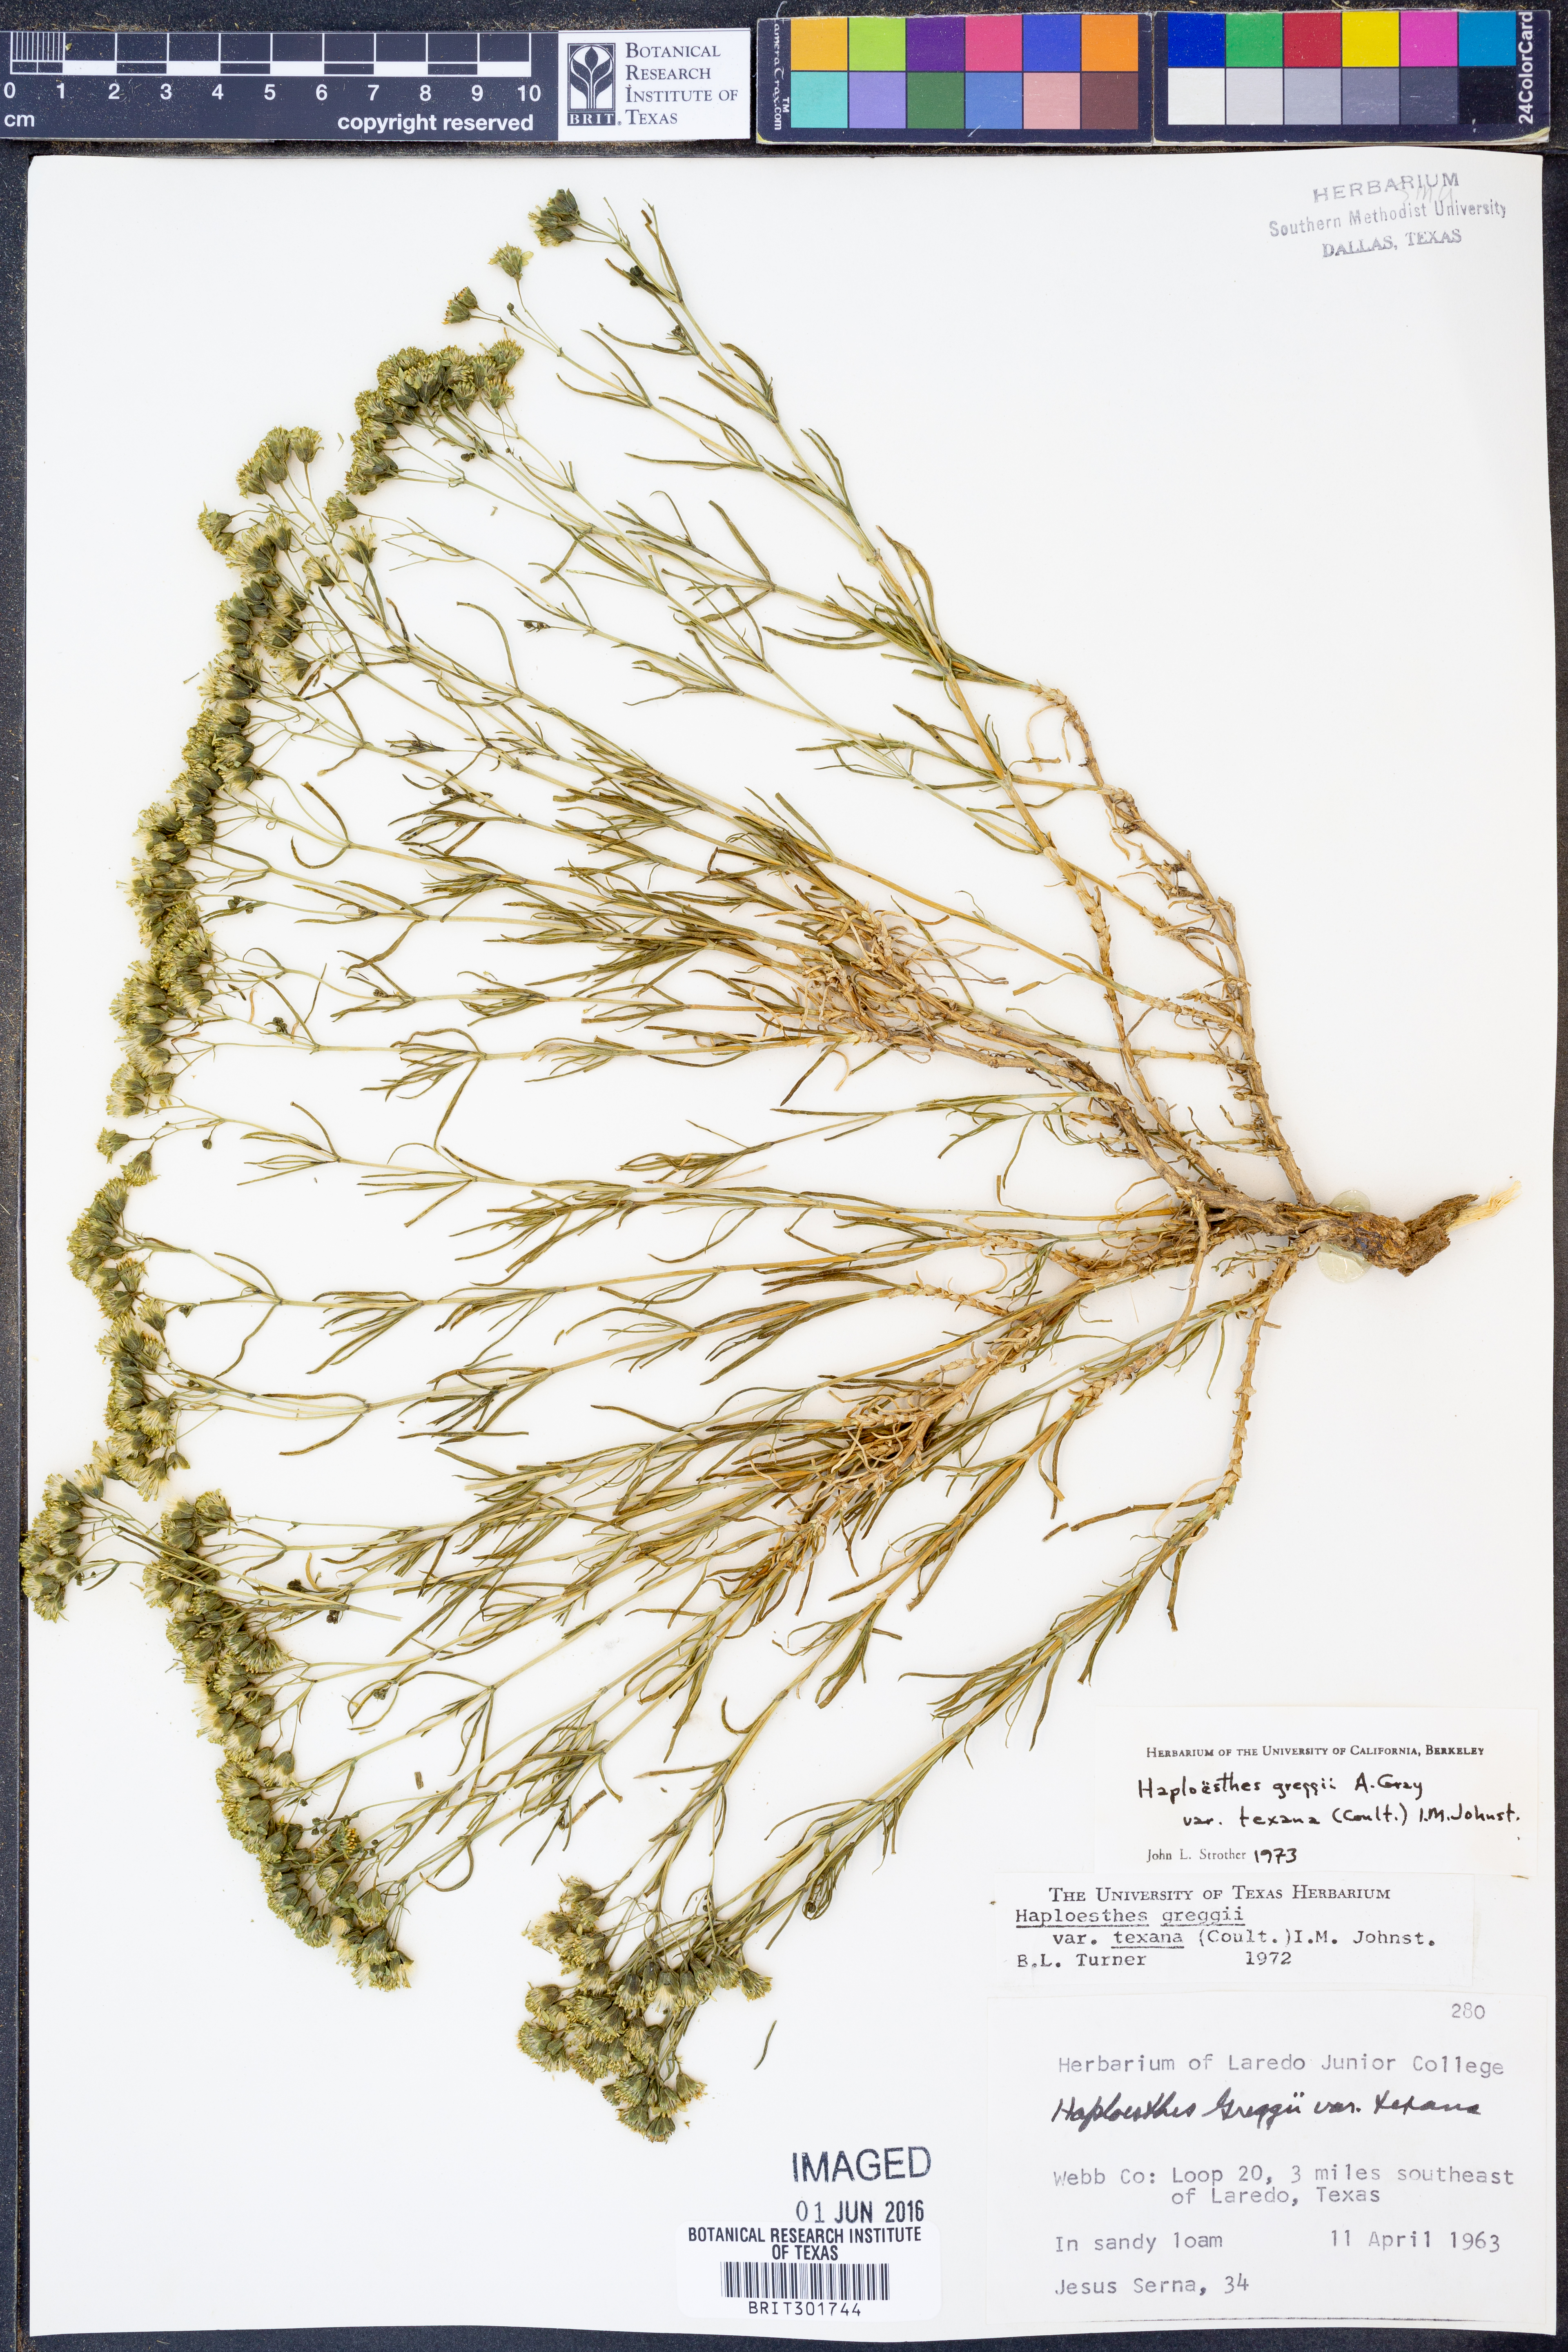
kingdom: Plantae
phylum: Tracheophyta
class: Magnoliopsida
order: Asterales
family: Asteraceae
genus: Haploesthes
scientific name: Haploesthes greggii
